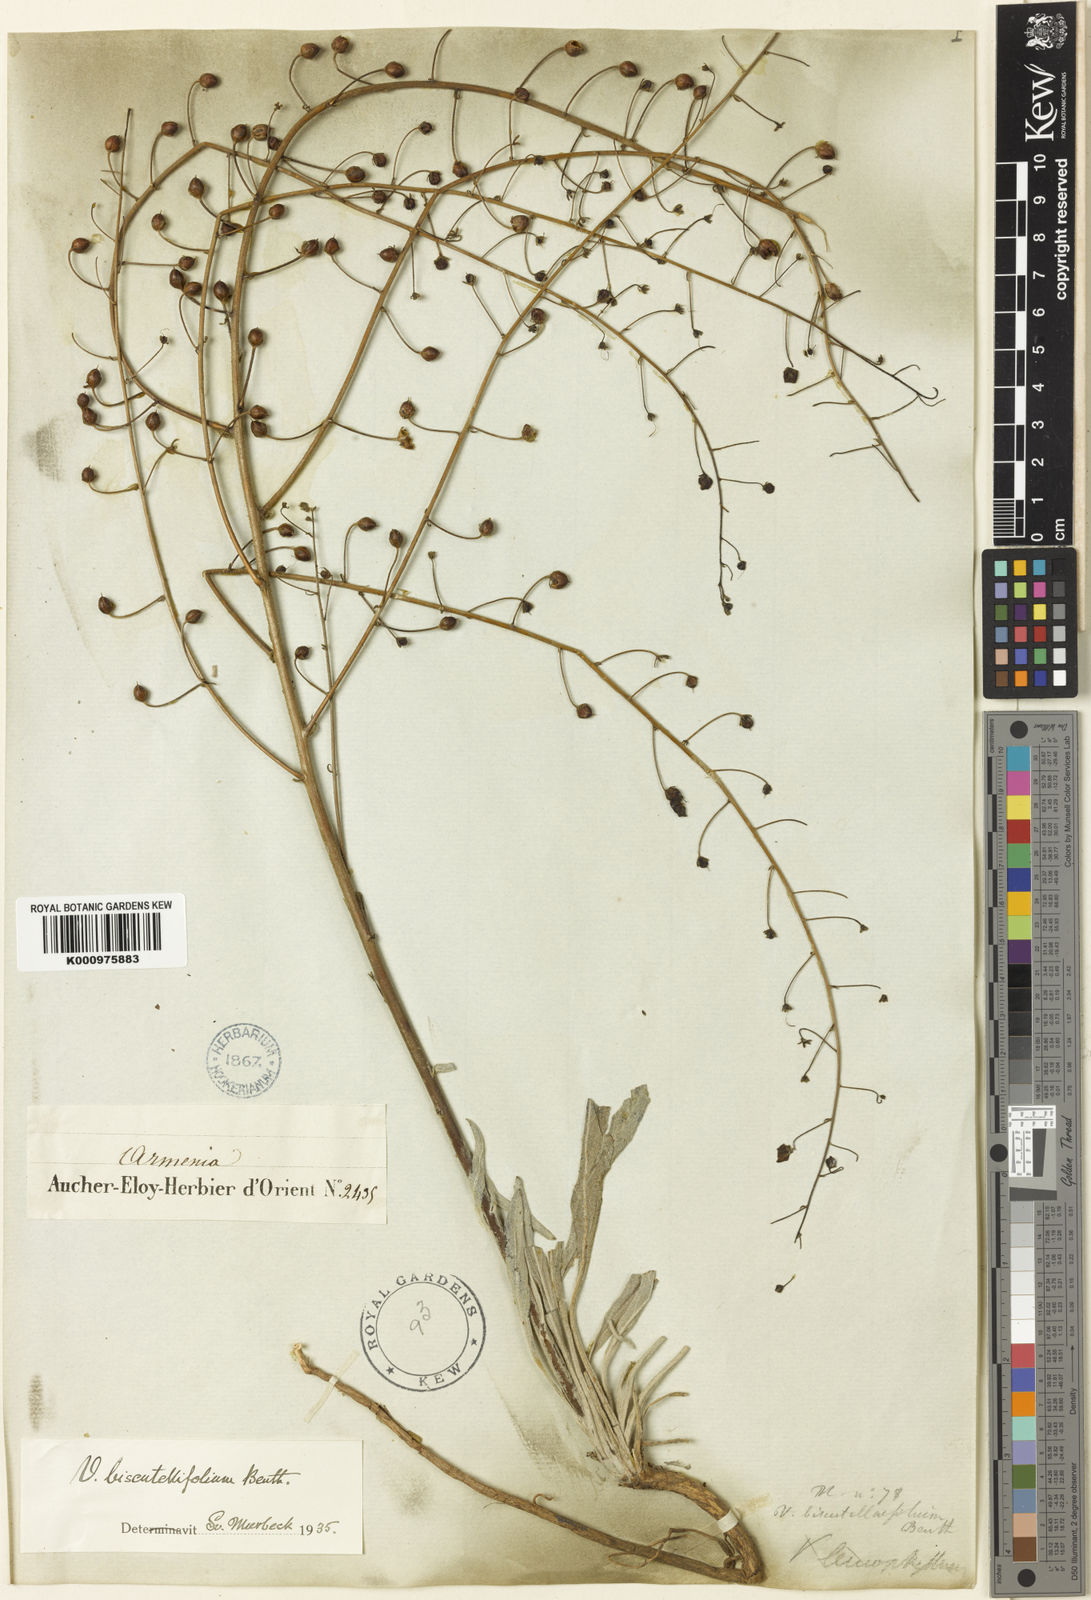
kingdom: Plantae
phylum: Tracheophyta
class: Magnoliopsida
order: Lamiales
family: Scrophulariaceae
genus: Verbascum
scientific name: Verbascum biscutellifolium
